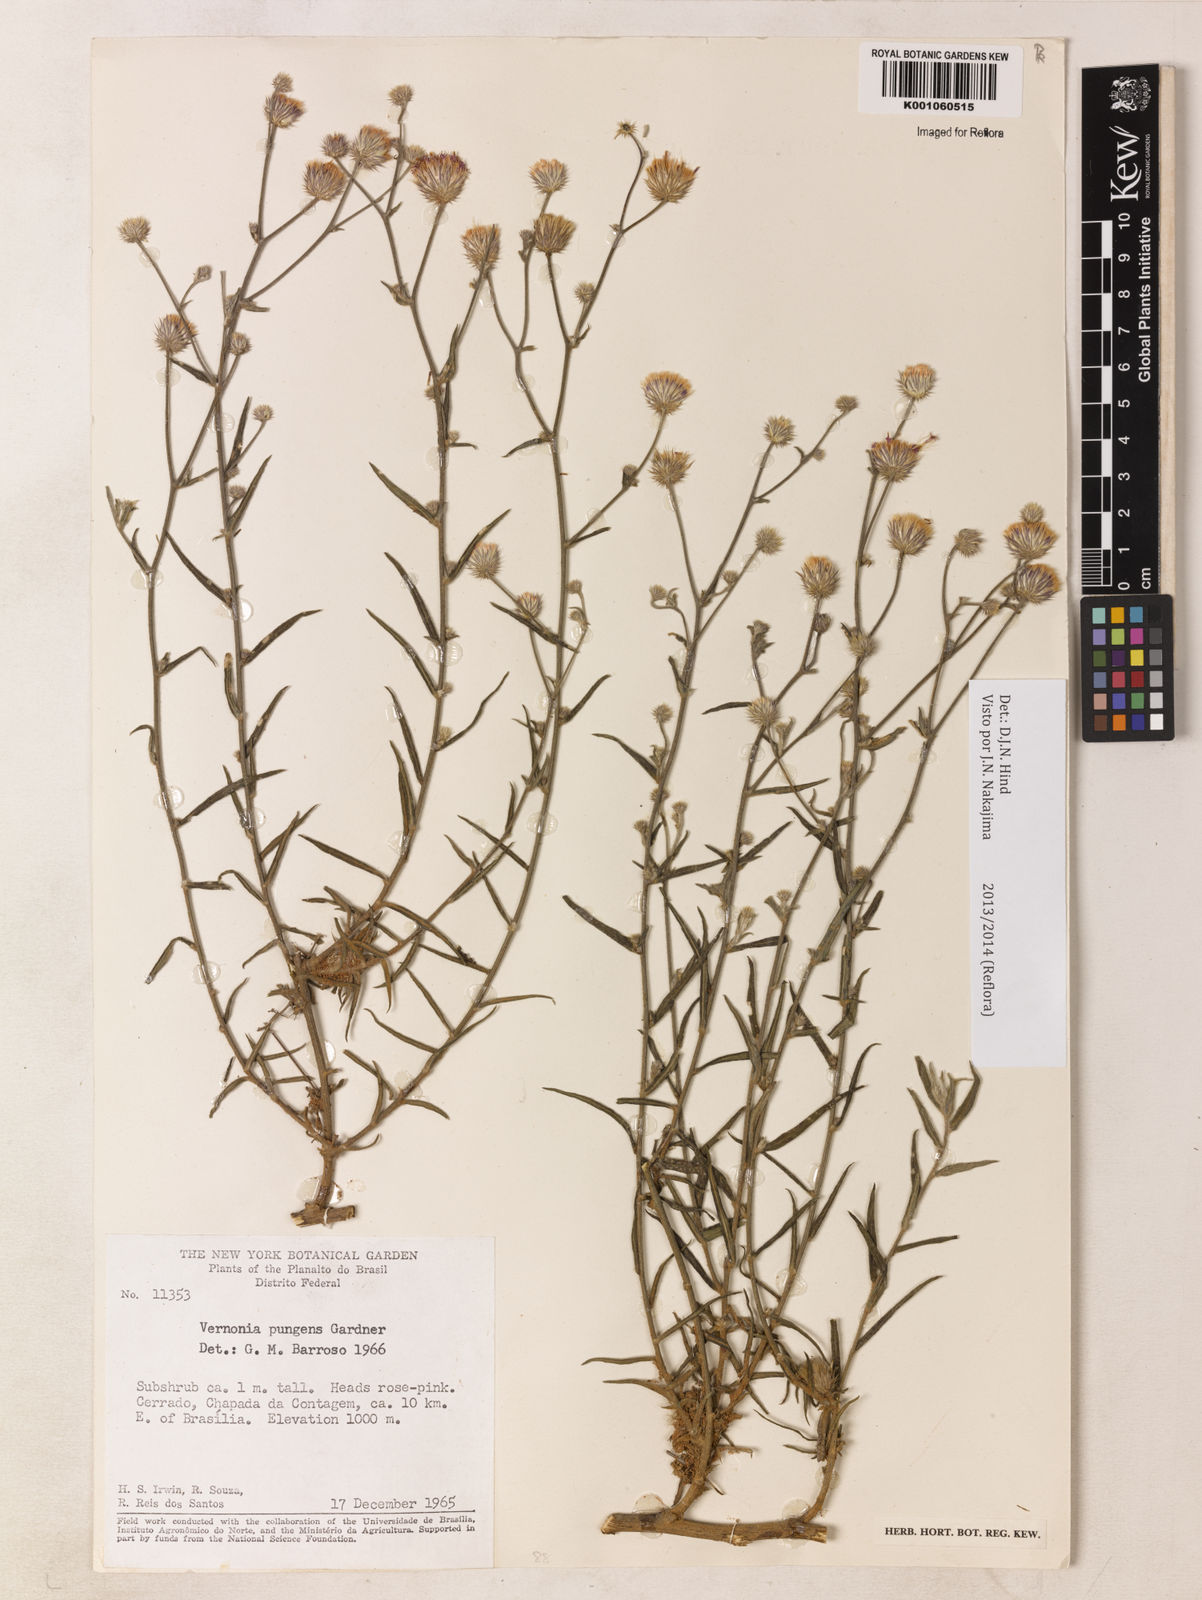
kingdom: Plantae
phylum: Tracheophyta
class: Magnoliopsida
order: Asterales
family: Asteraceae
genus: Echinocoryne
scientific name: Echinocoryne pungens
